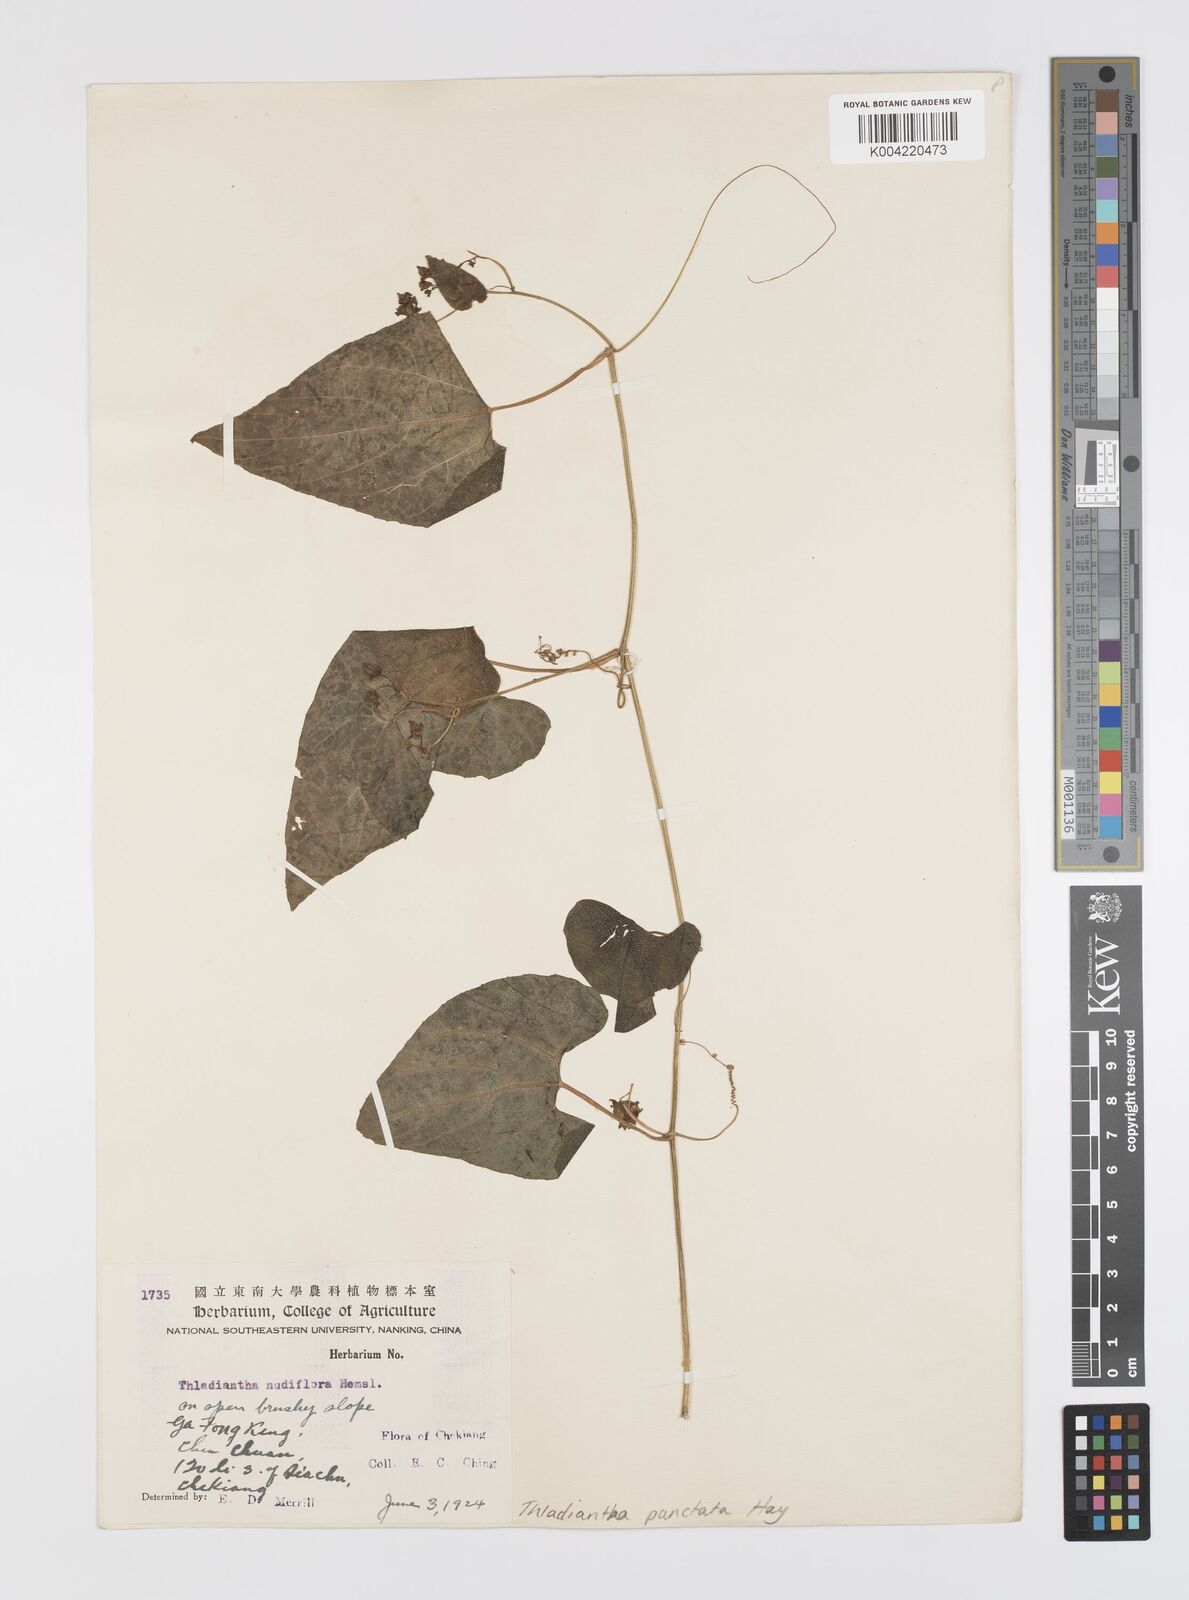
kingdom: Plantae
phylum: Tracheophyta
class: Magnoliopsida
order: Cucurbitales
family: Cucurbitaceae
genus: Thladiantha
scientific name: Thladiantha punctata
